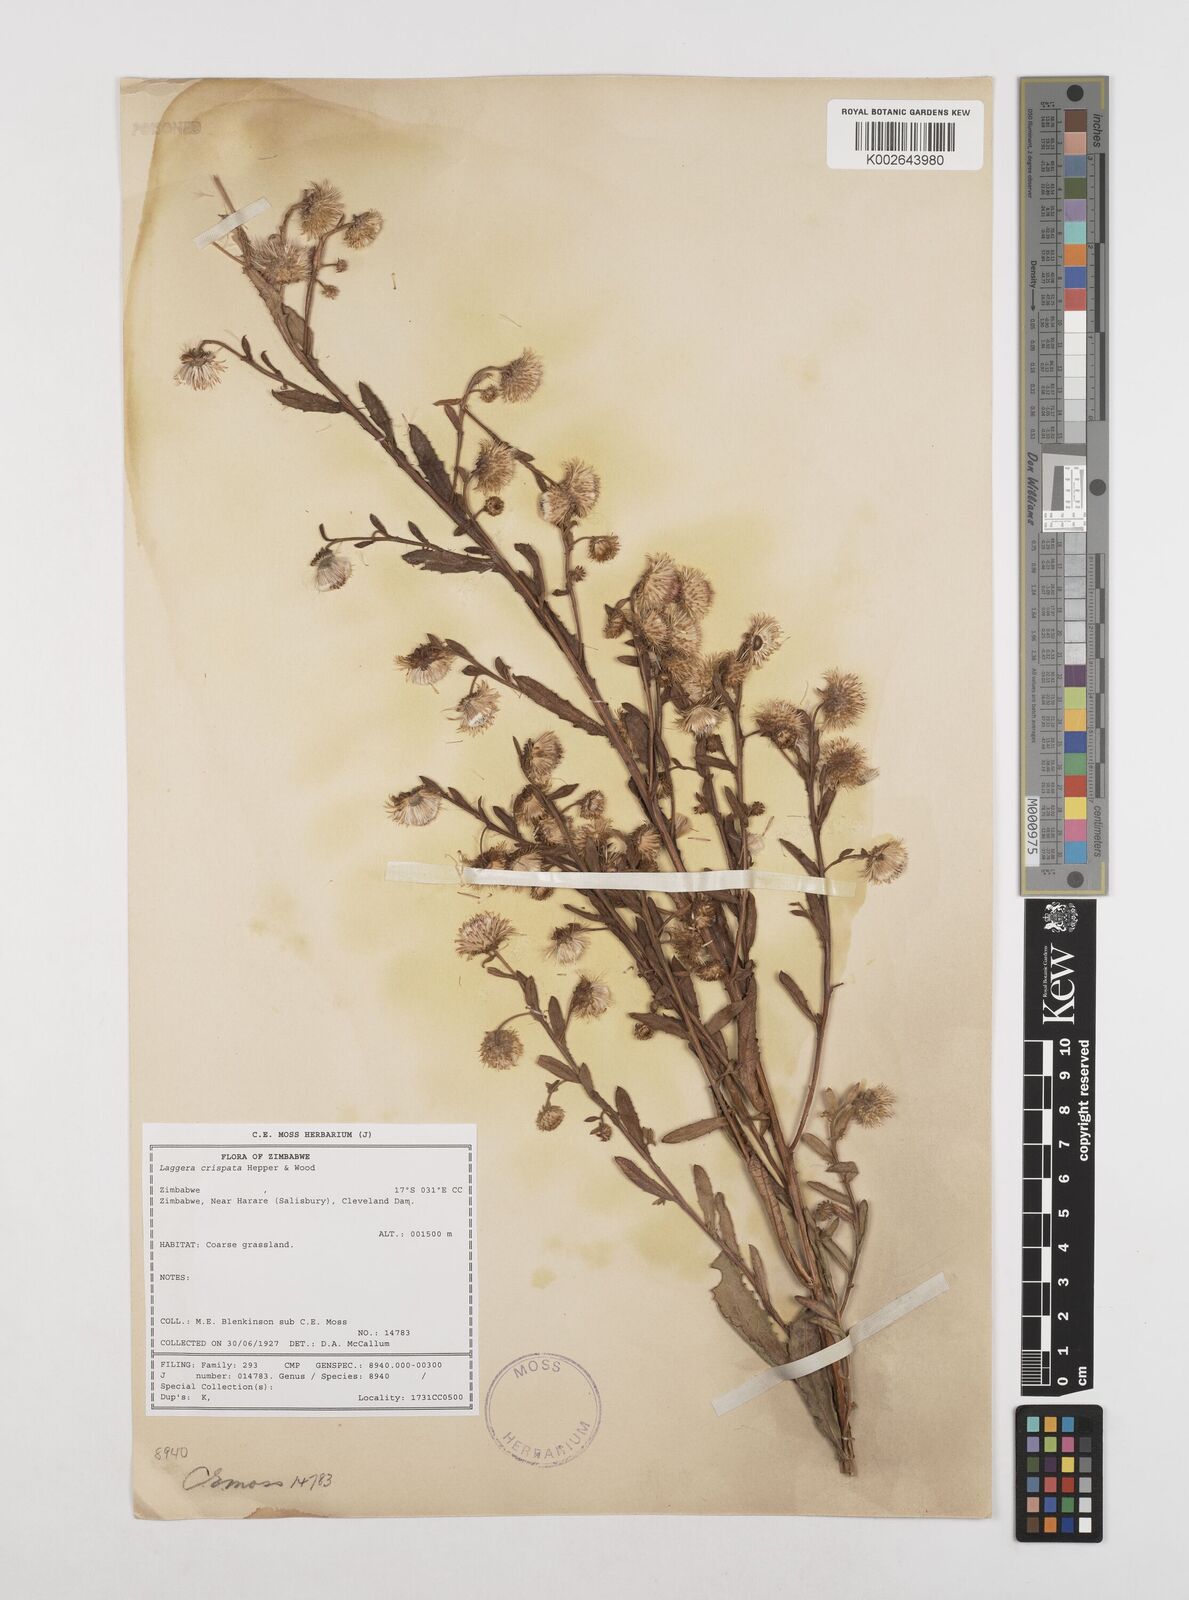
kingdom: Plantae
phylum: Tracheophyta
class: Magnoliopsida
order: Asterales
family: Asteraceae
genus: Laggera
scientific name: Laggera crispata
